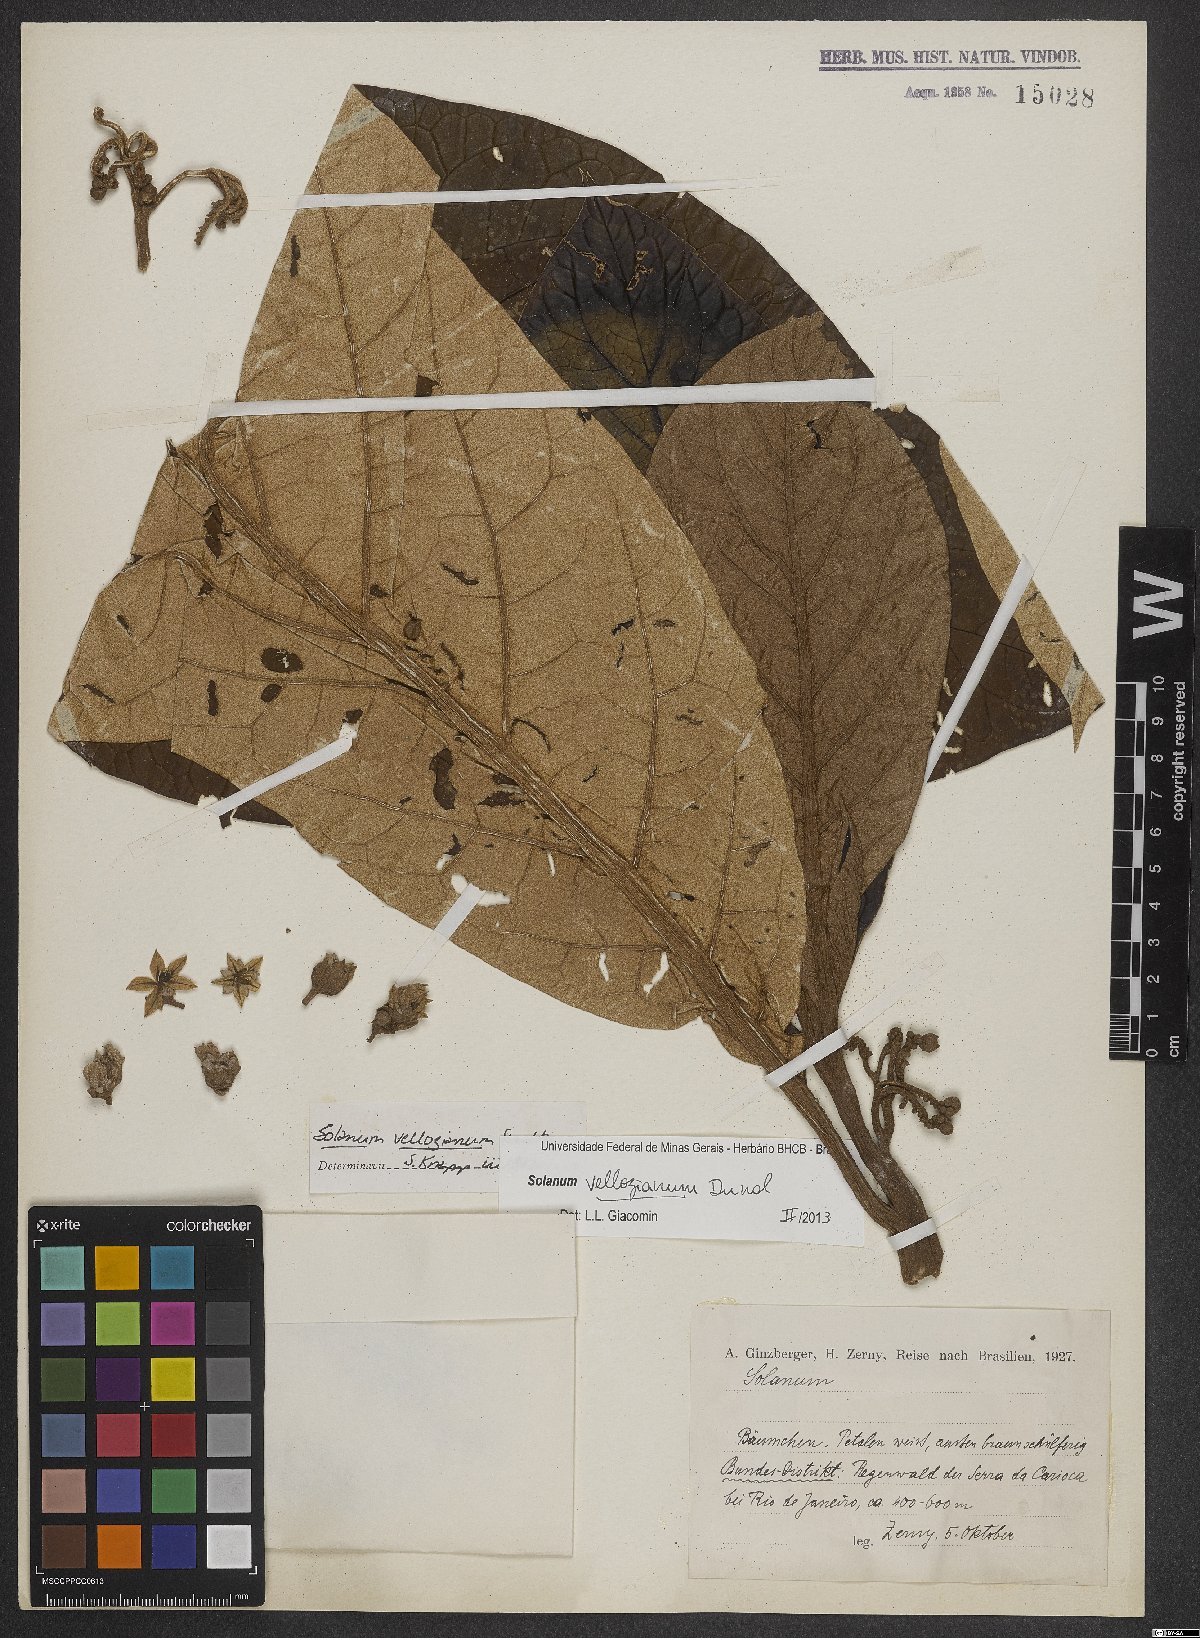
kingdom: Plantae
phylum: Tracheophyta
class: Magnoliopsida
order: Solanales
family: Solanaceae
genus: Solanum
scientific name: Solanum vellozianum
